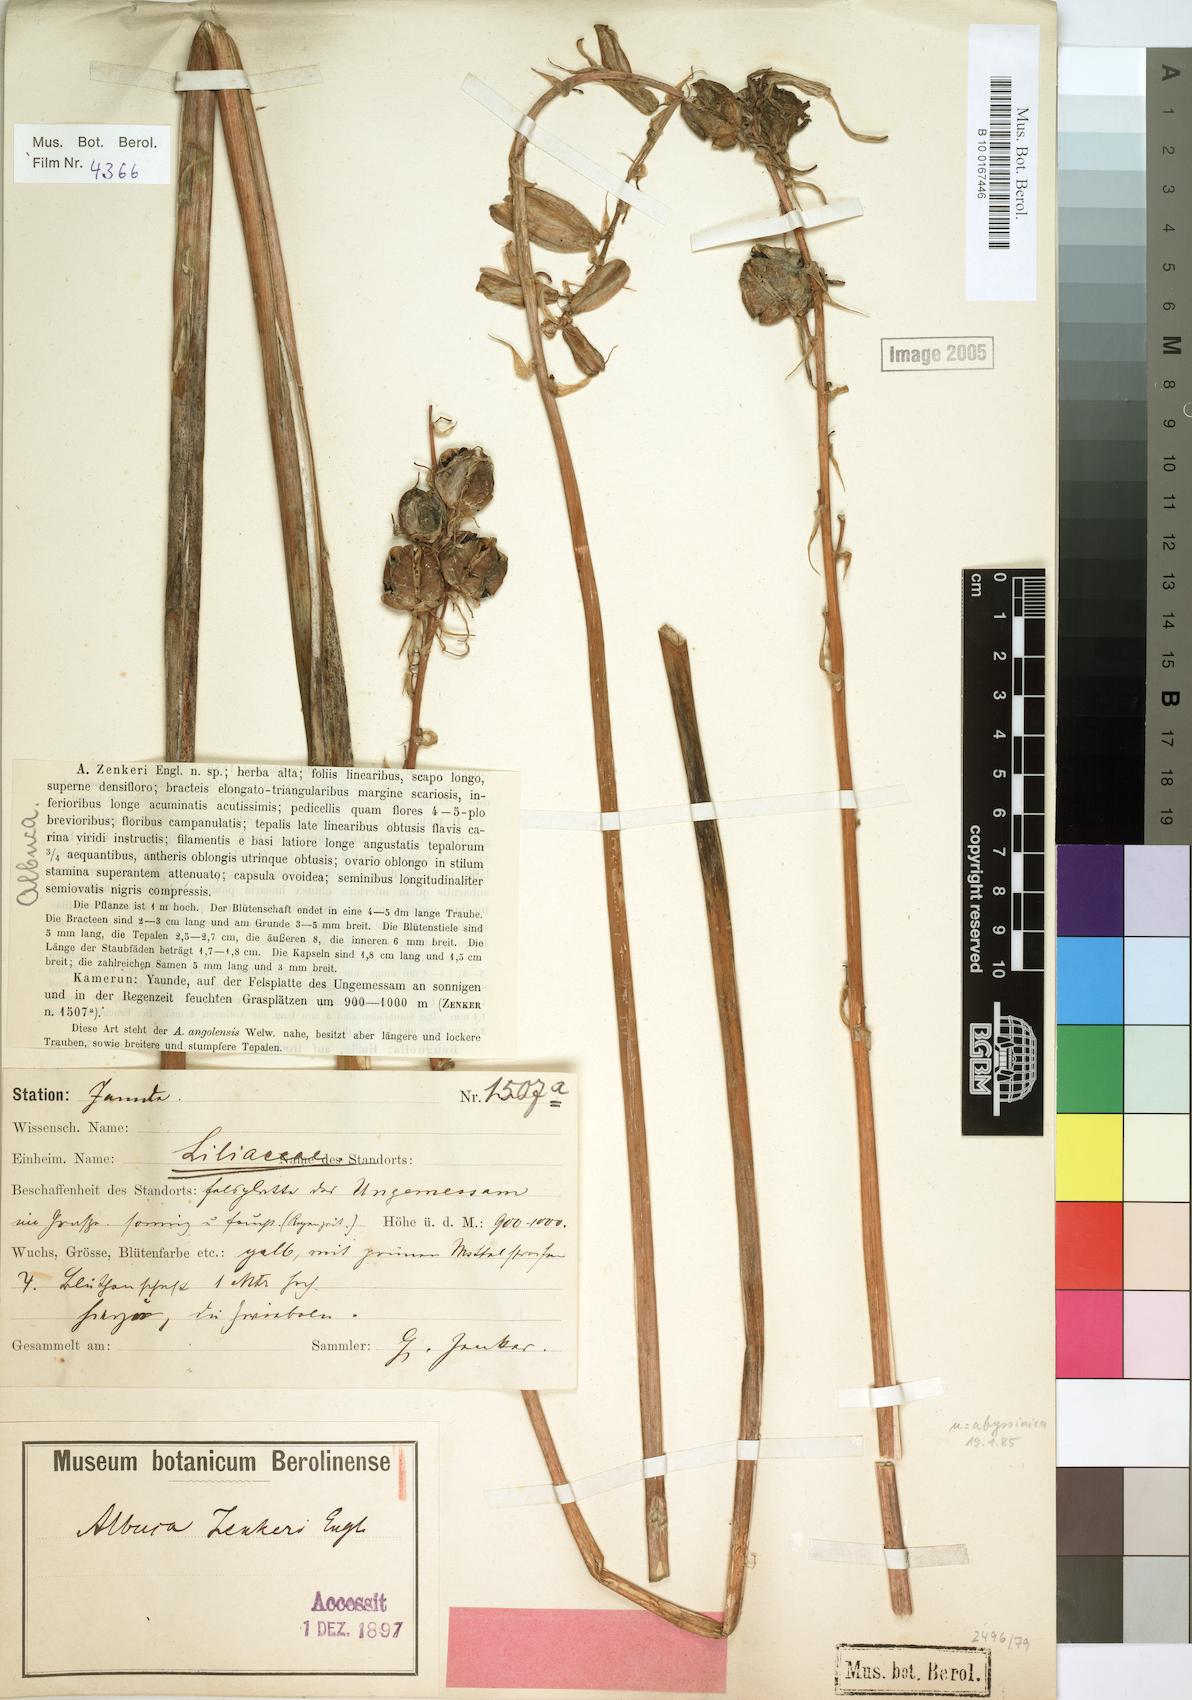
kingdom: Plantae
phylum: Tracheophyta
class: Liliopsida
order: Asparagales
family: Asparagaceae
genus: Albuca
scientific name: Albuca zenkeri
